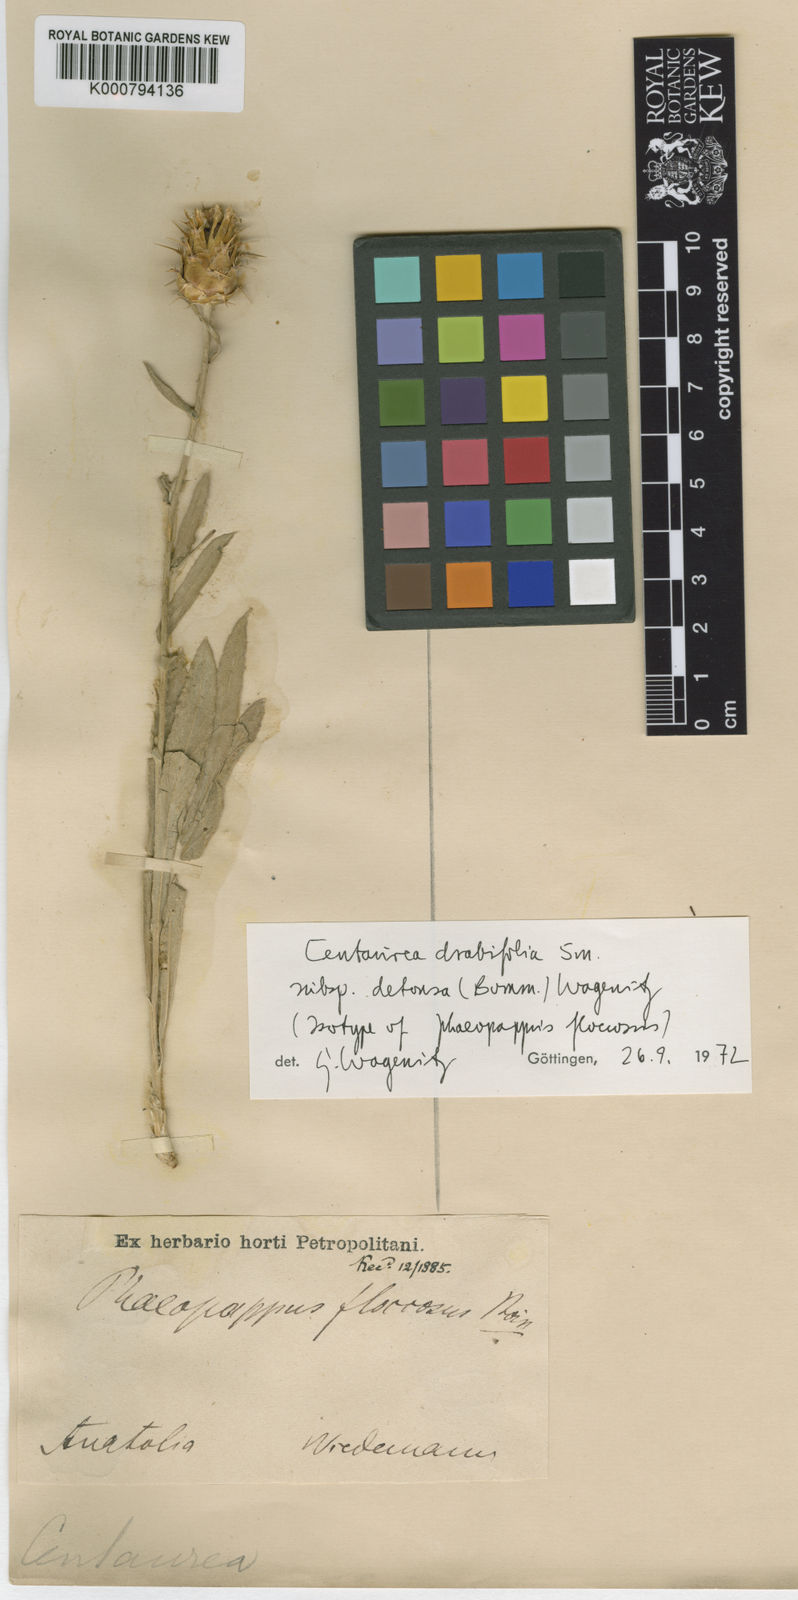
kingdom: Plantae
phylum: Tracheophyta
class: Magnoliopsida
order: Asterales
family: Asteraceae
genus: Centaurea
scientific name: Centaurea drabifolia
